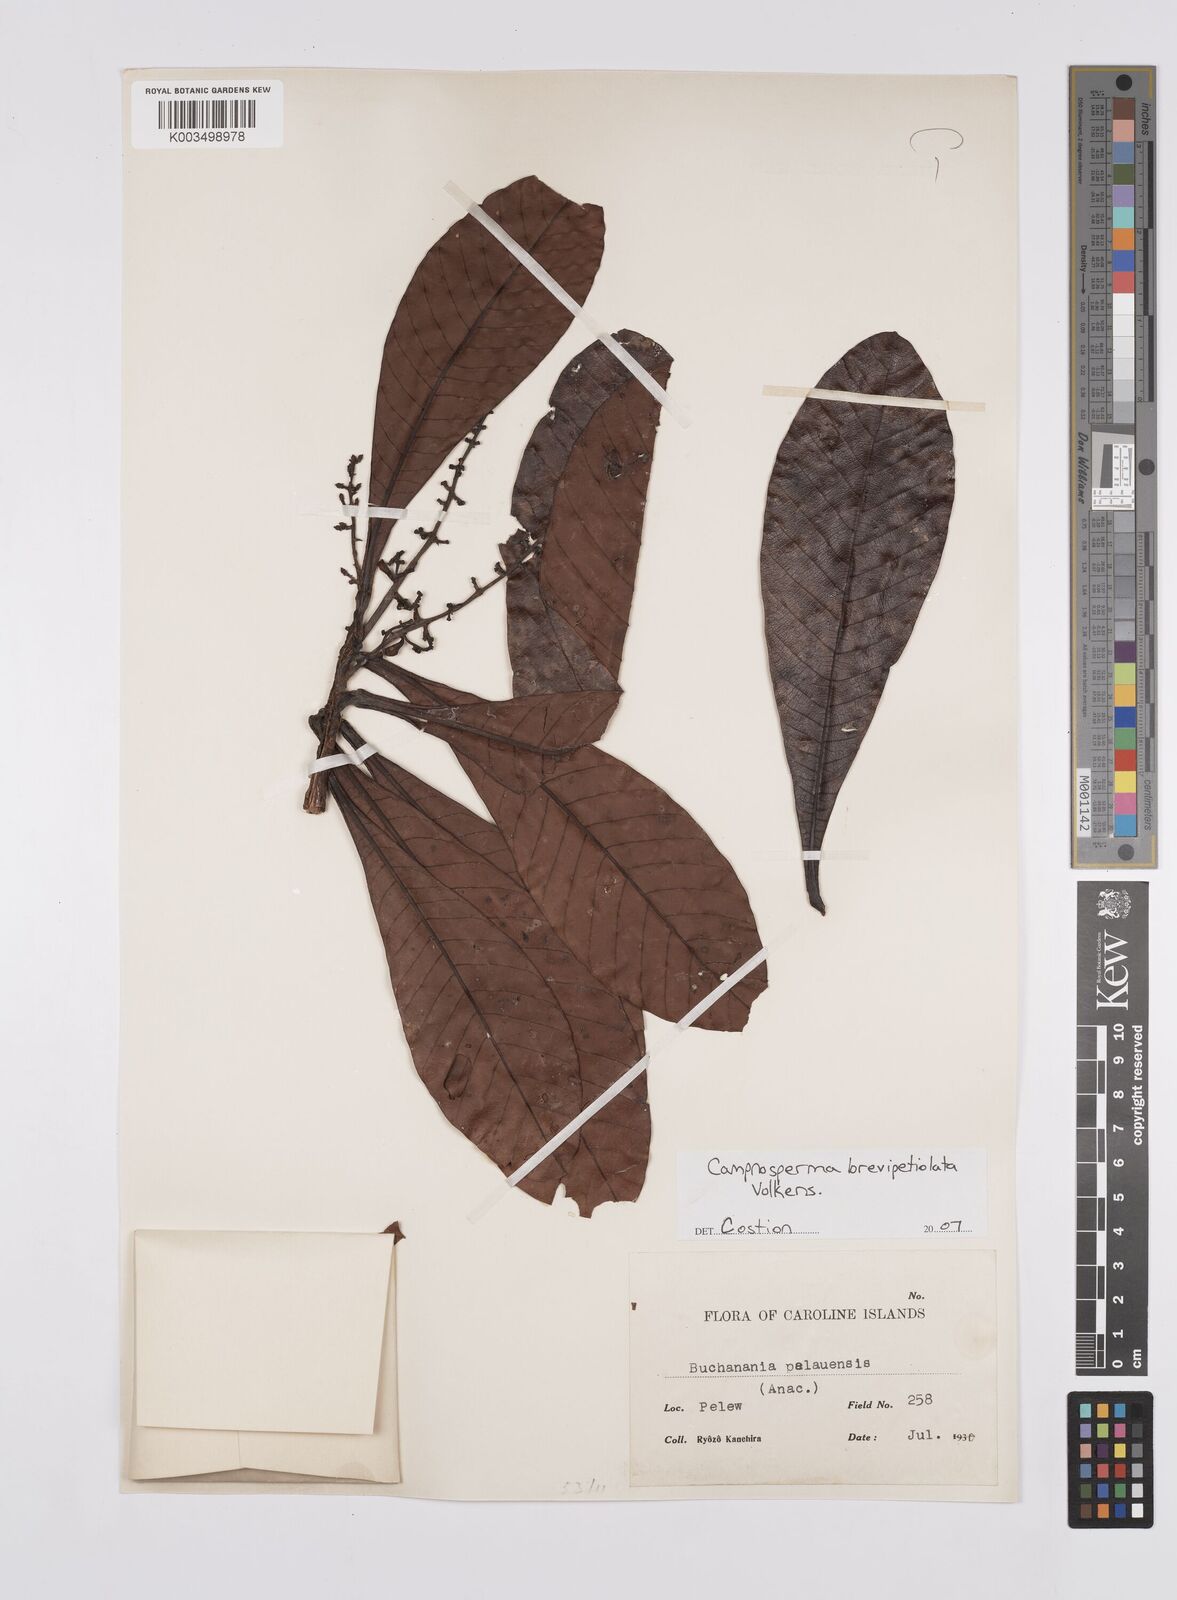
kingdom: Plantae
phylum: Tracheophyta
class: Magnoliopsida
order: Sapindales
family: Anacardiaceae
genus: Campnosperma
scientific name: Campnosperma brevipetiolatum
